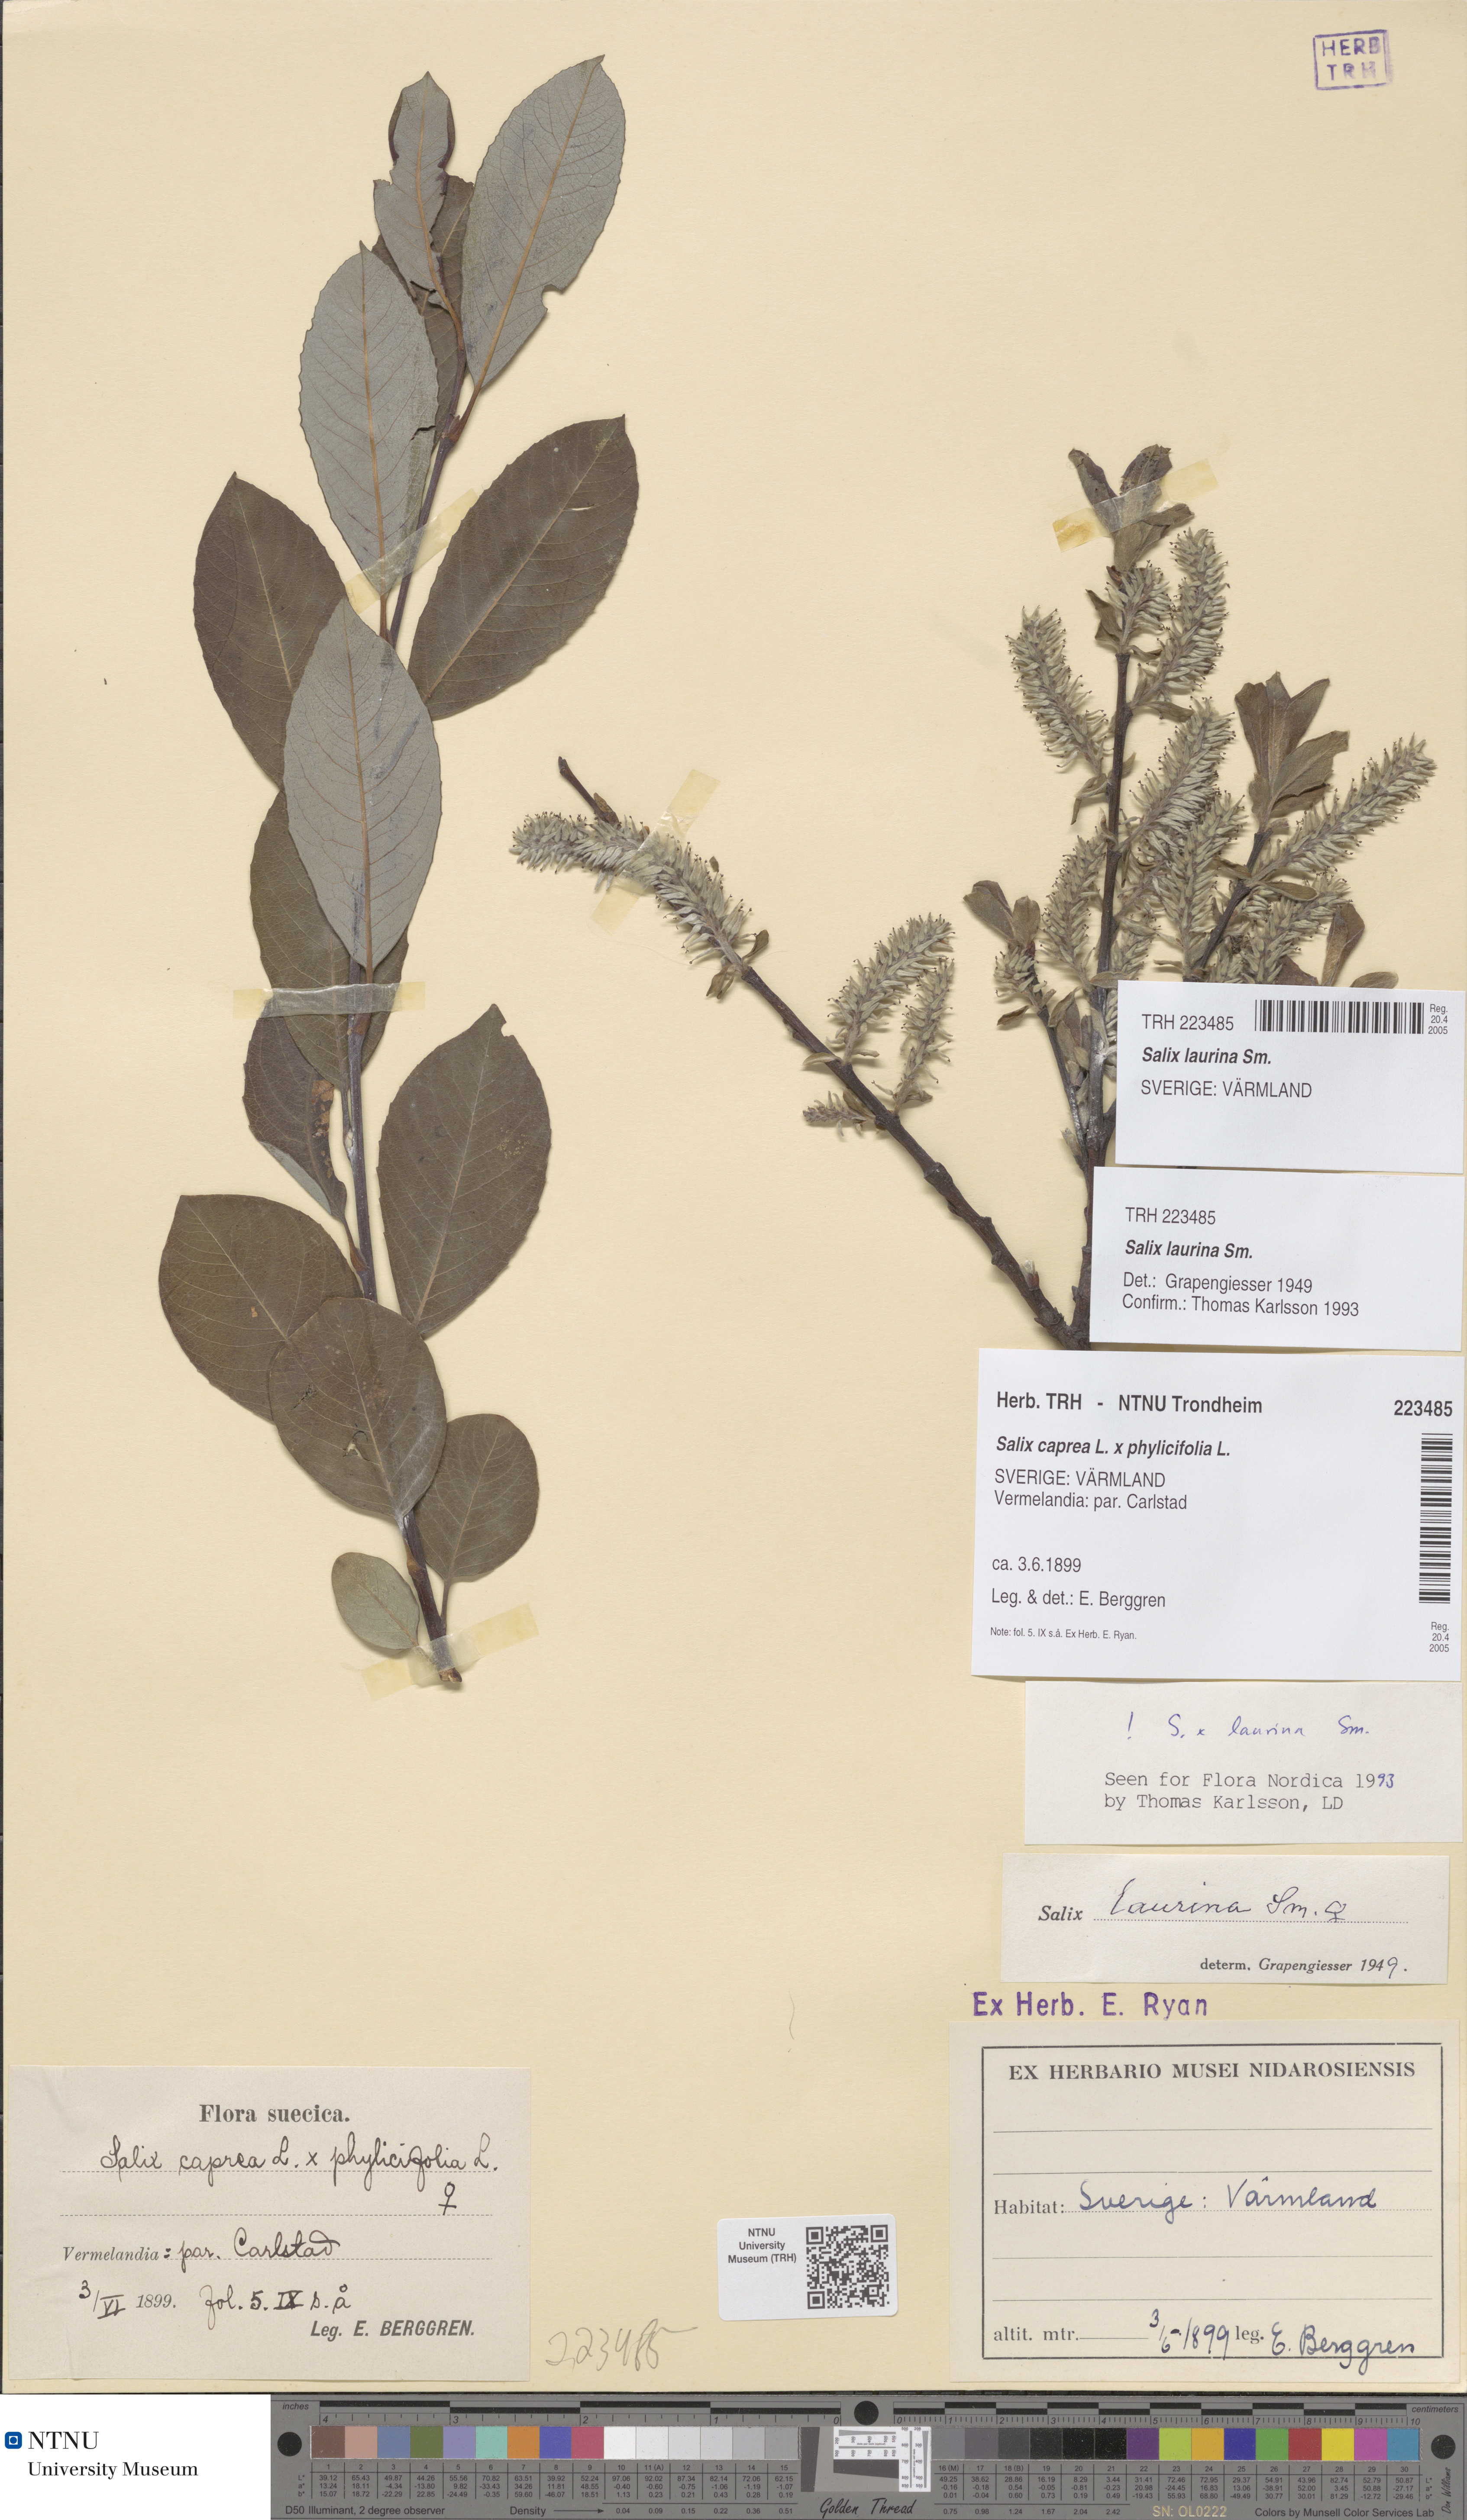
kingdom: Plantae
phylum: Tracheophyta
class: Magnoliopsida
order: Malpighiales
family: Salicaceae
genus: Salix
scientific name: Salix laurina
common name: Laurel-leaf willow
